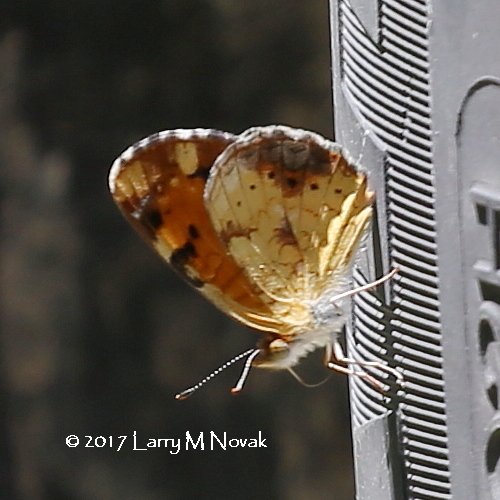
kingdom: Animalia
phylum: Arthropoda
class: Insecta
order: Lepidoptera
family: Nymphalidae
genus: Phyciodes
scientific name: Phyciodes tharos
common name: Northern Crescent
